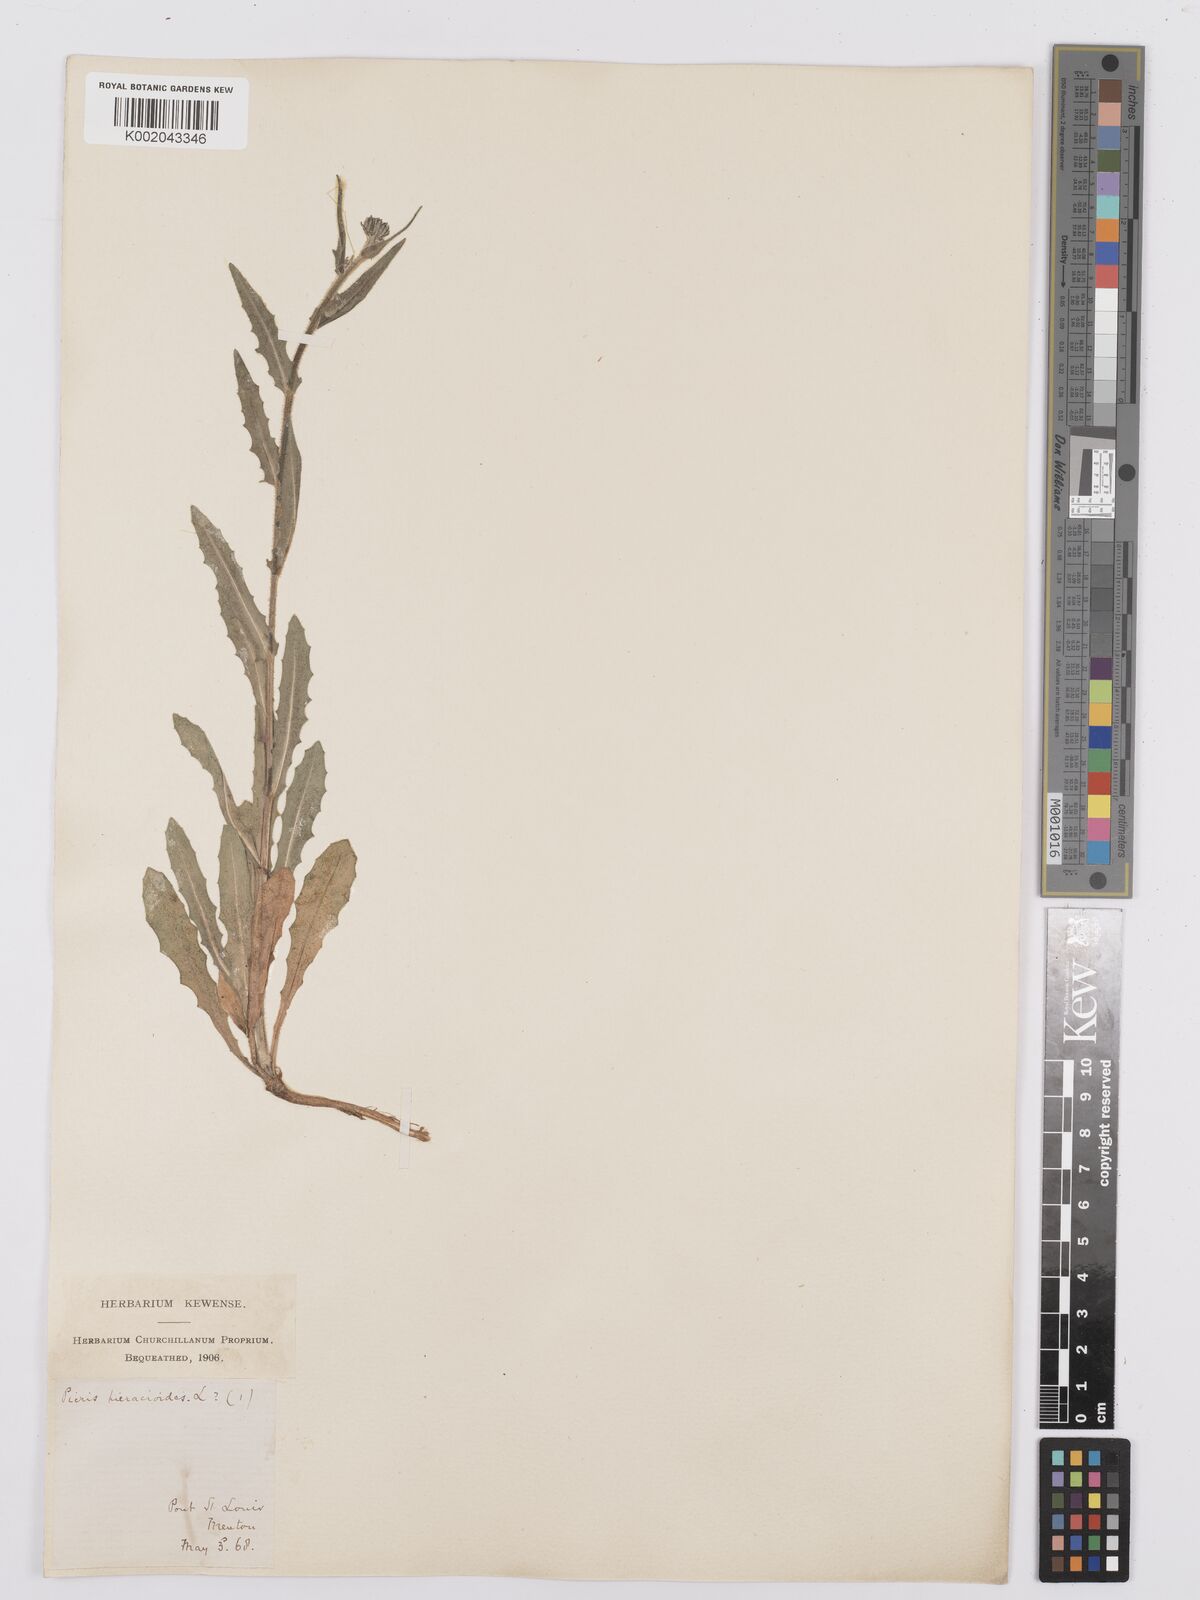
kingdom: Plantae
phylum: Tracheophyta
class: Magnoliopsida
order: Asterales
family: Asteraceae
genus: Picris
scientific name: Picris hieracioides
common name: Hawkweed oxtongue
